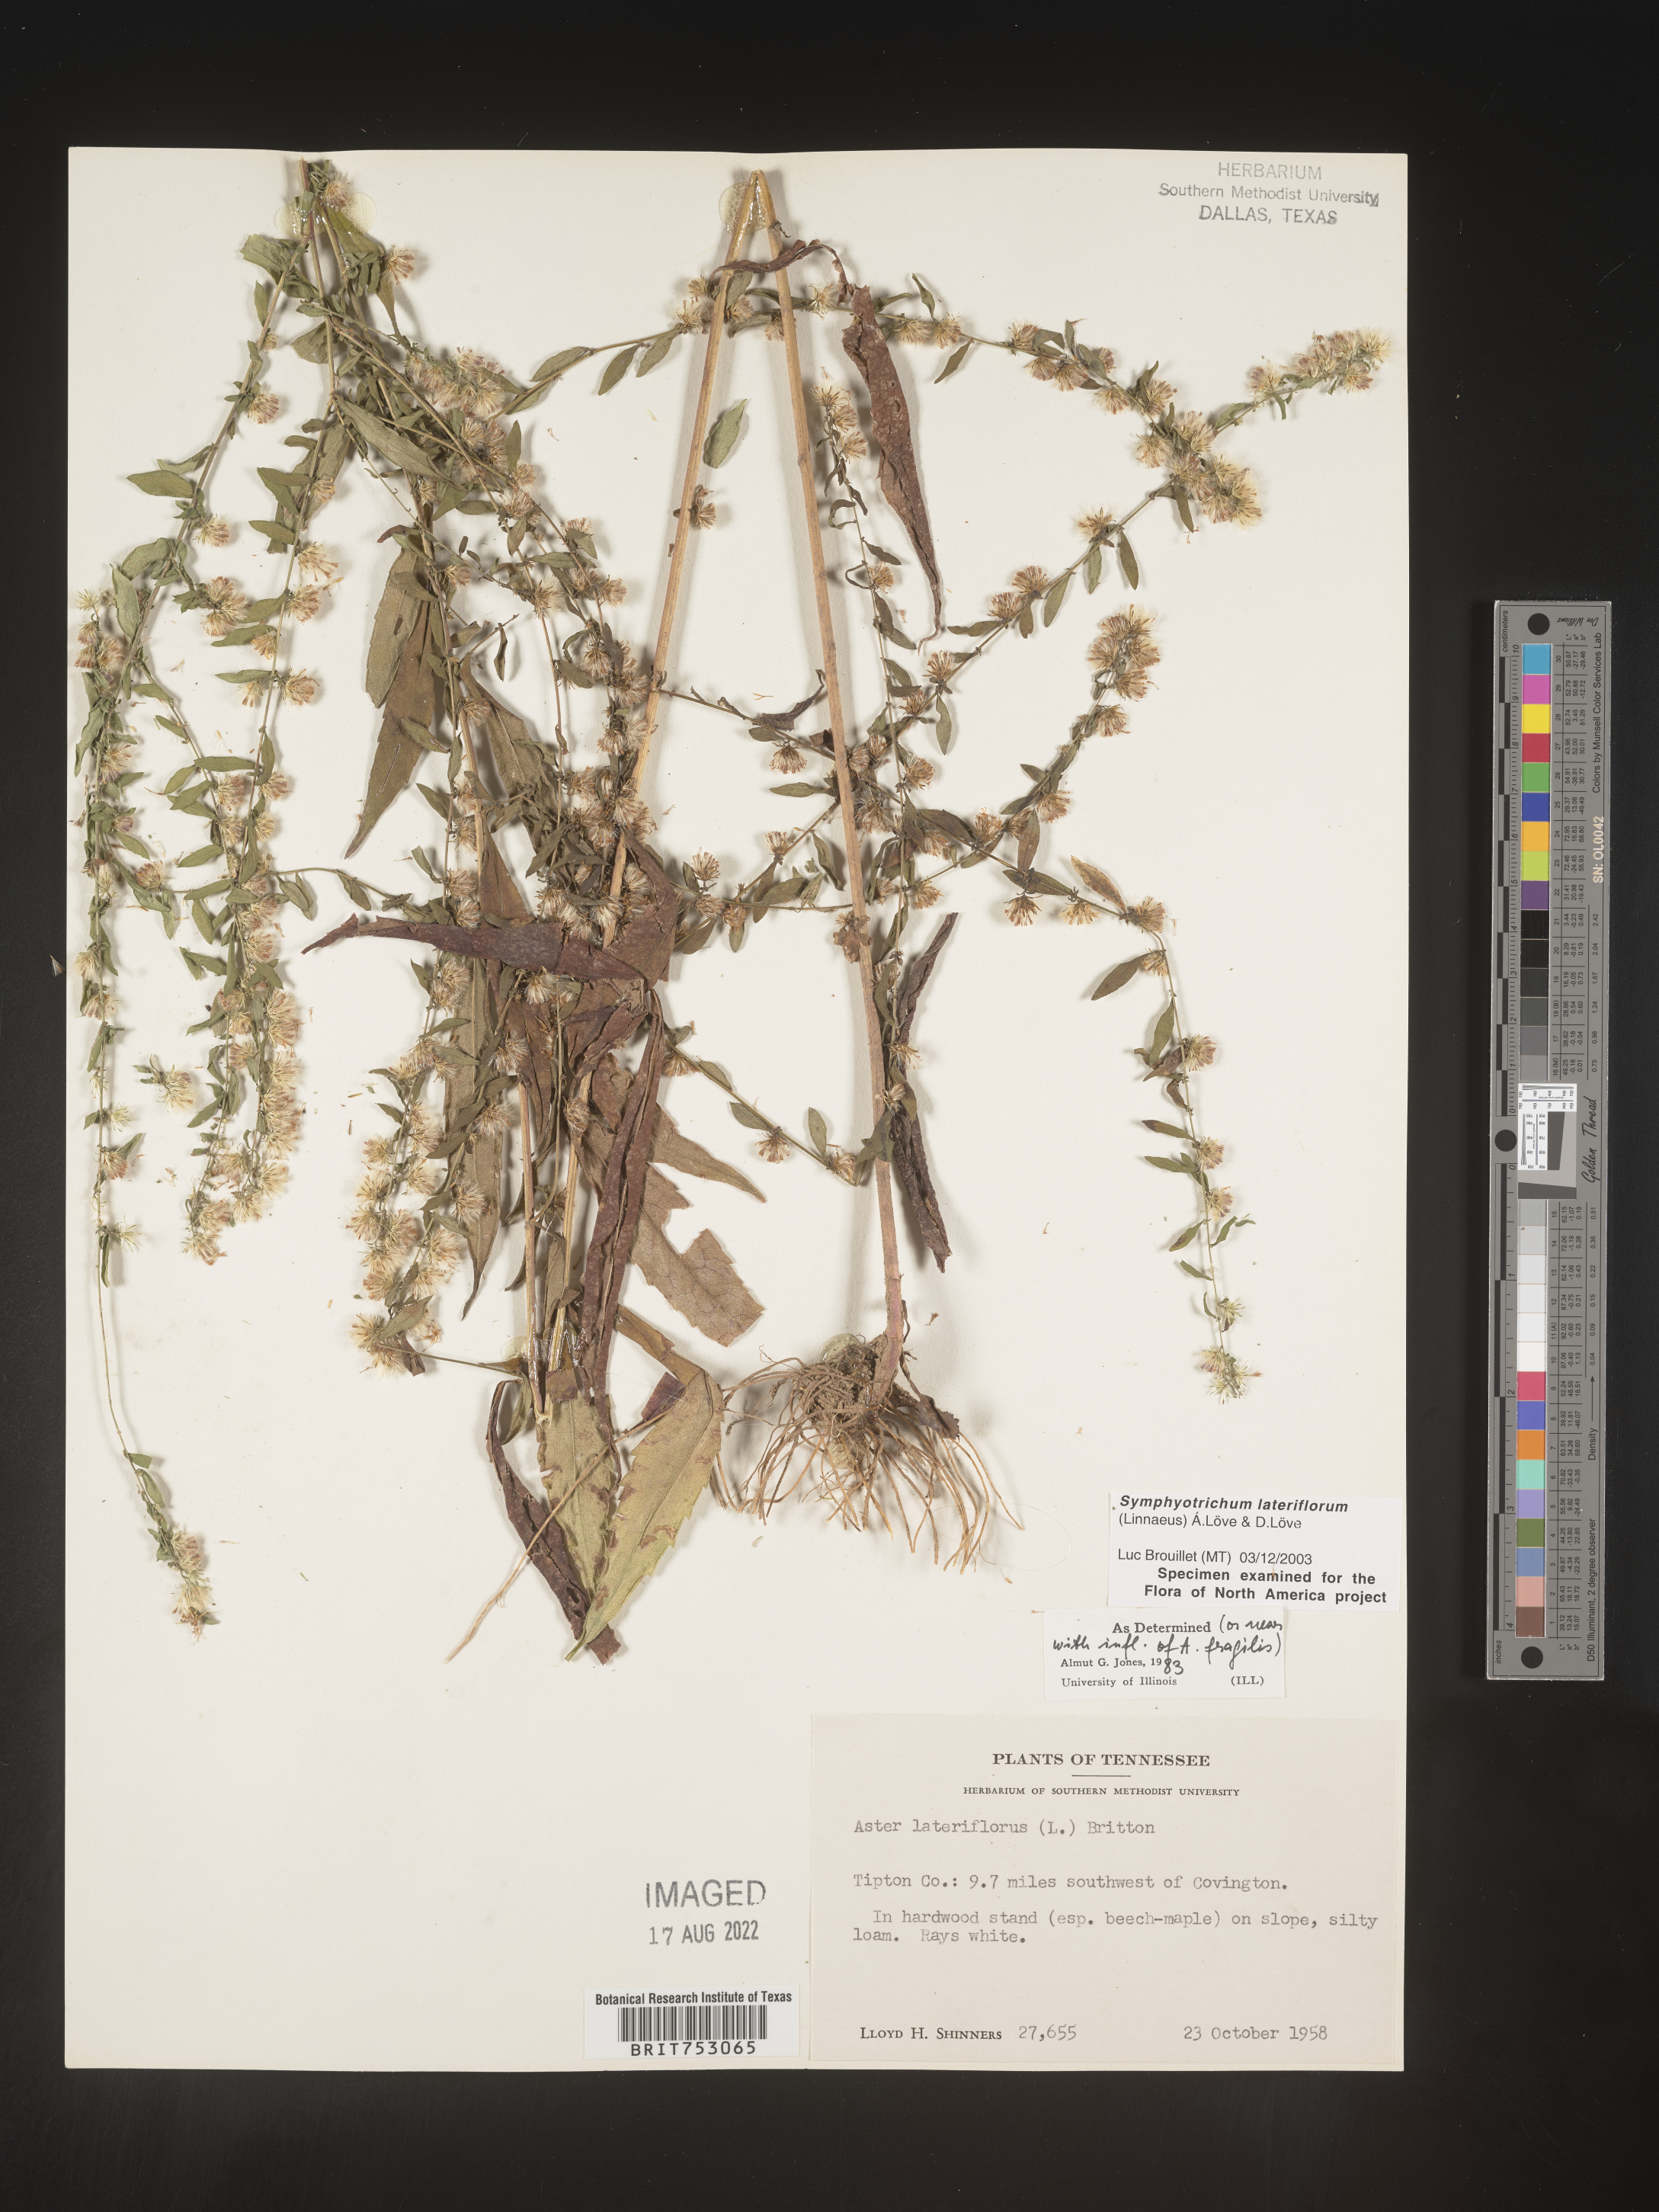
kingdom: Plantae
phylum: Tracheophyta
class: Magnoliopsida
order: Asterales
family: Asteraceae
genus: Symphyotrichum
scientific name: Symphyotrichum lateriflorum
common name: Calico aster
